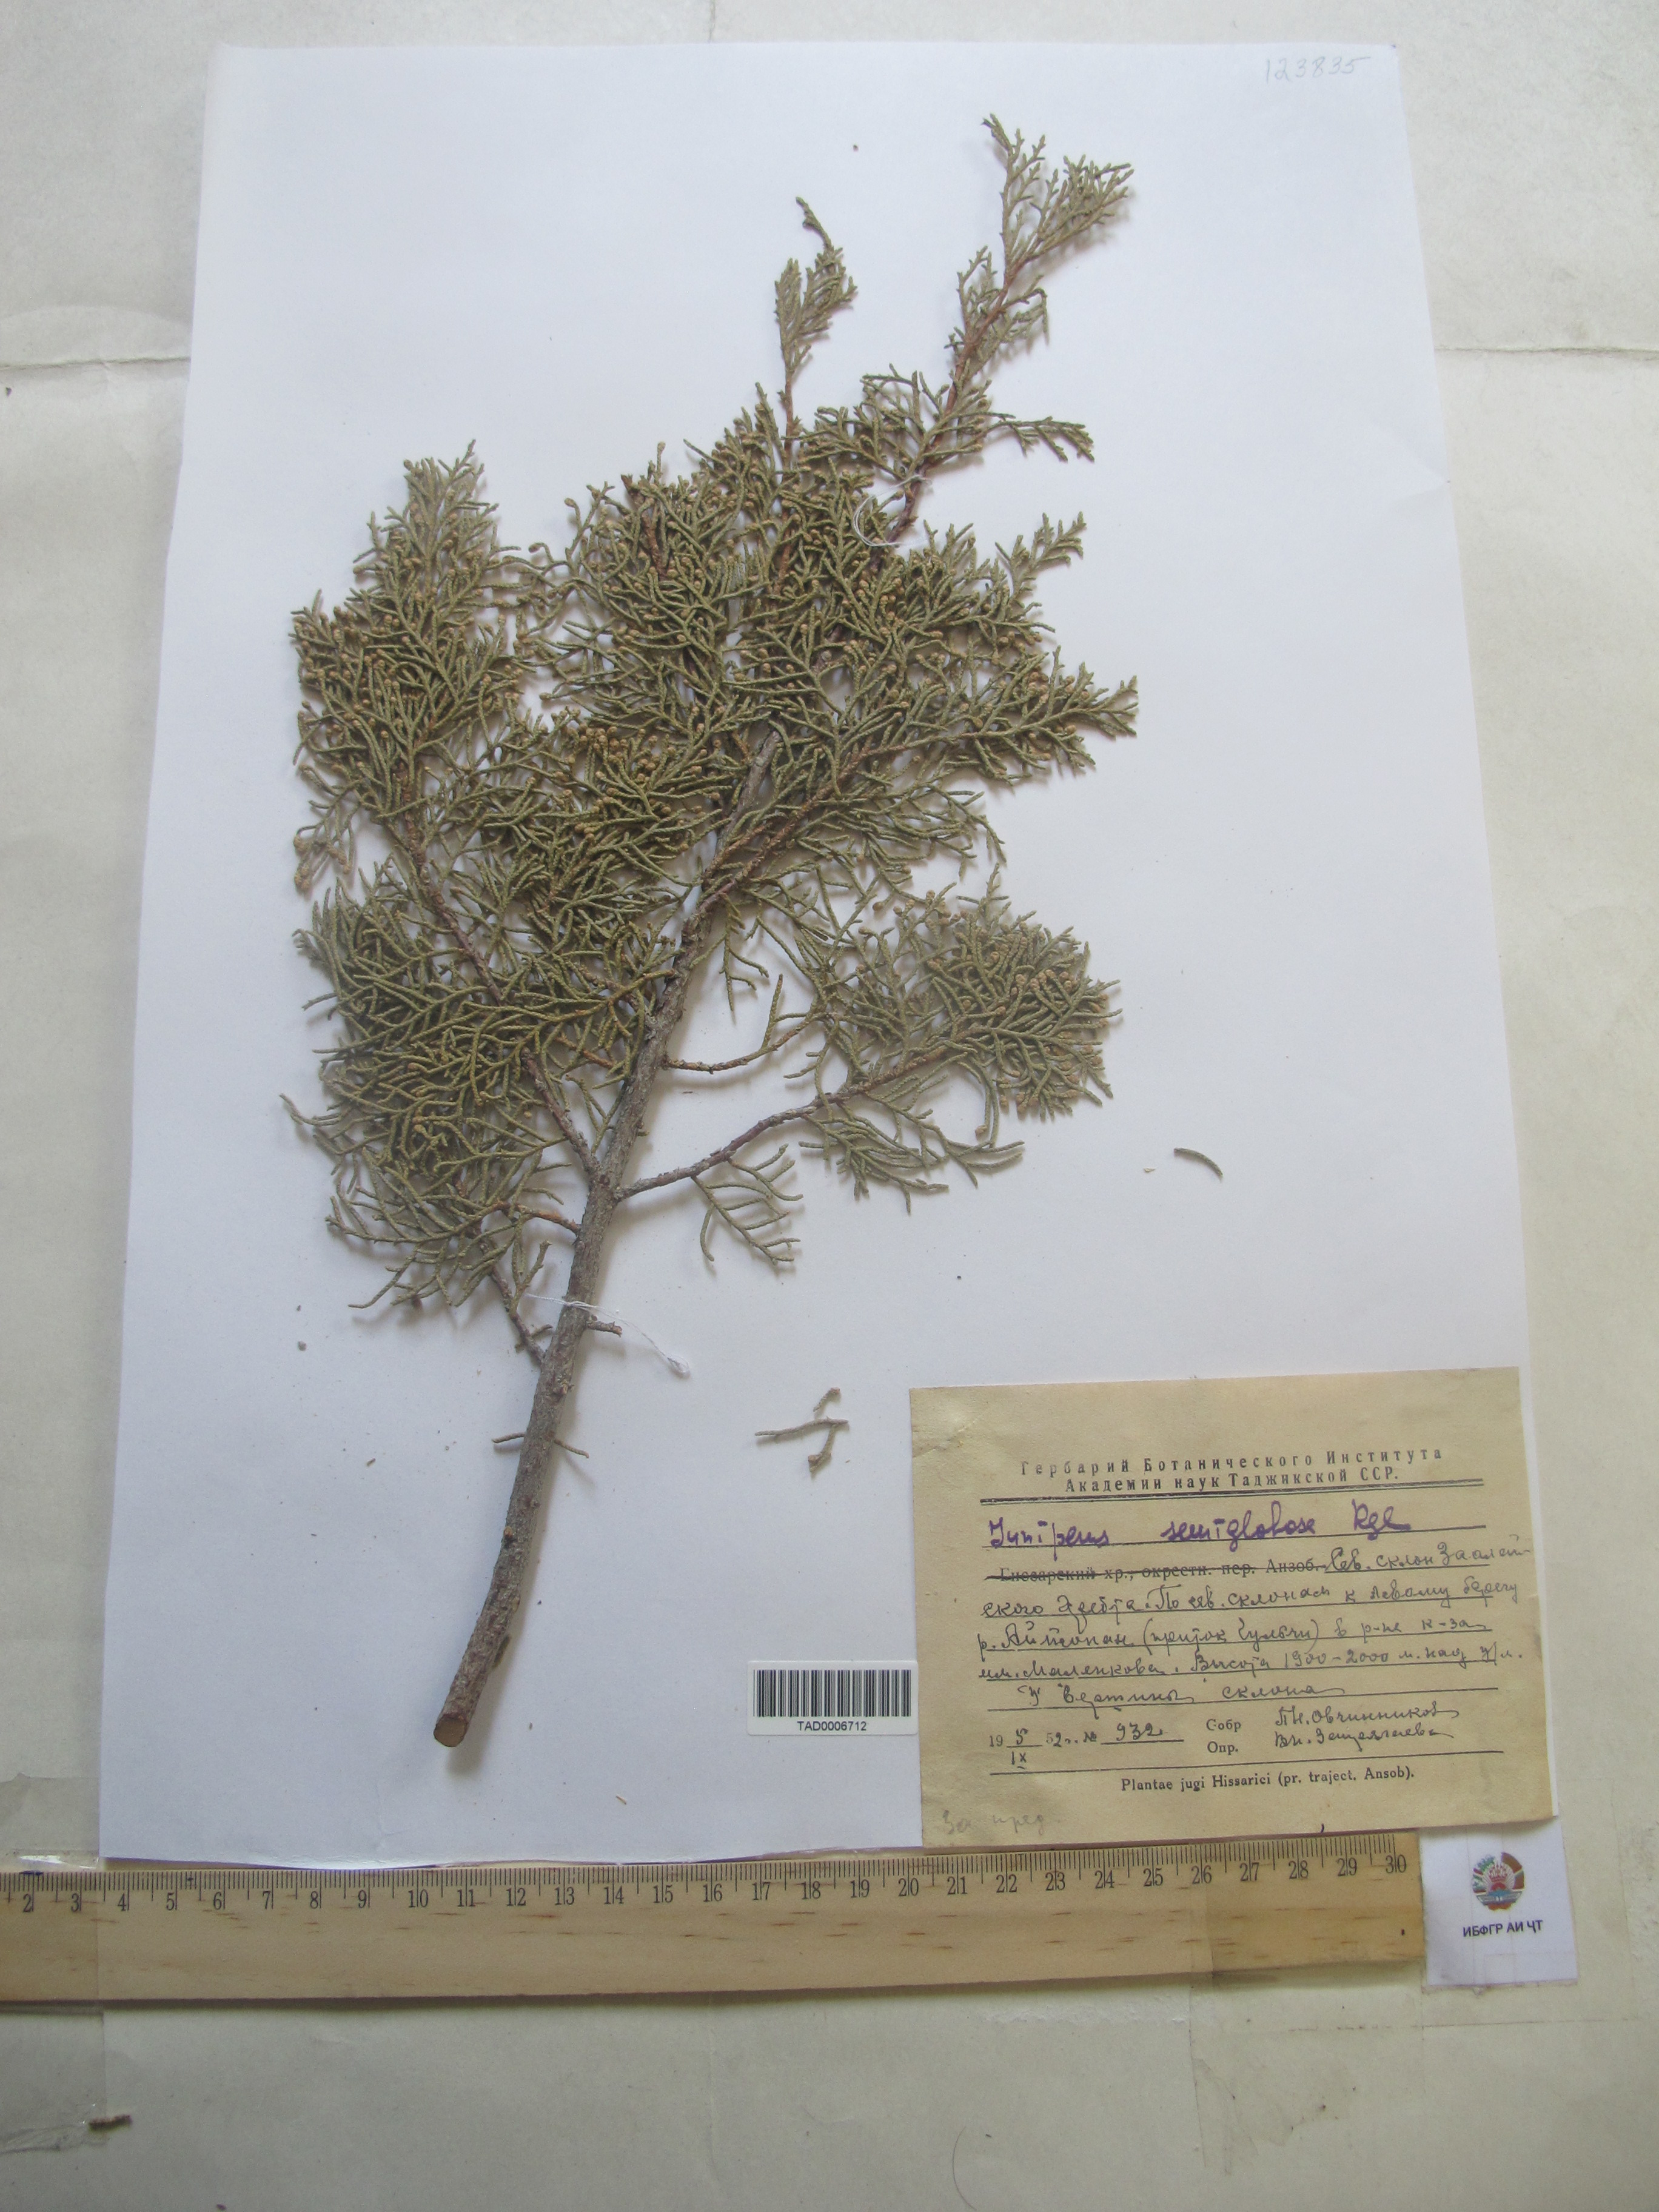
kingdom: Plantae
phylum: Tracheophyta
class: Pinopsida
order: Pinales
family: Cupressaceae
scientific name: Cupressaceae
